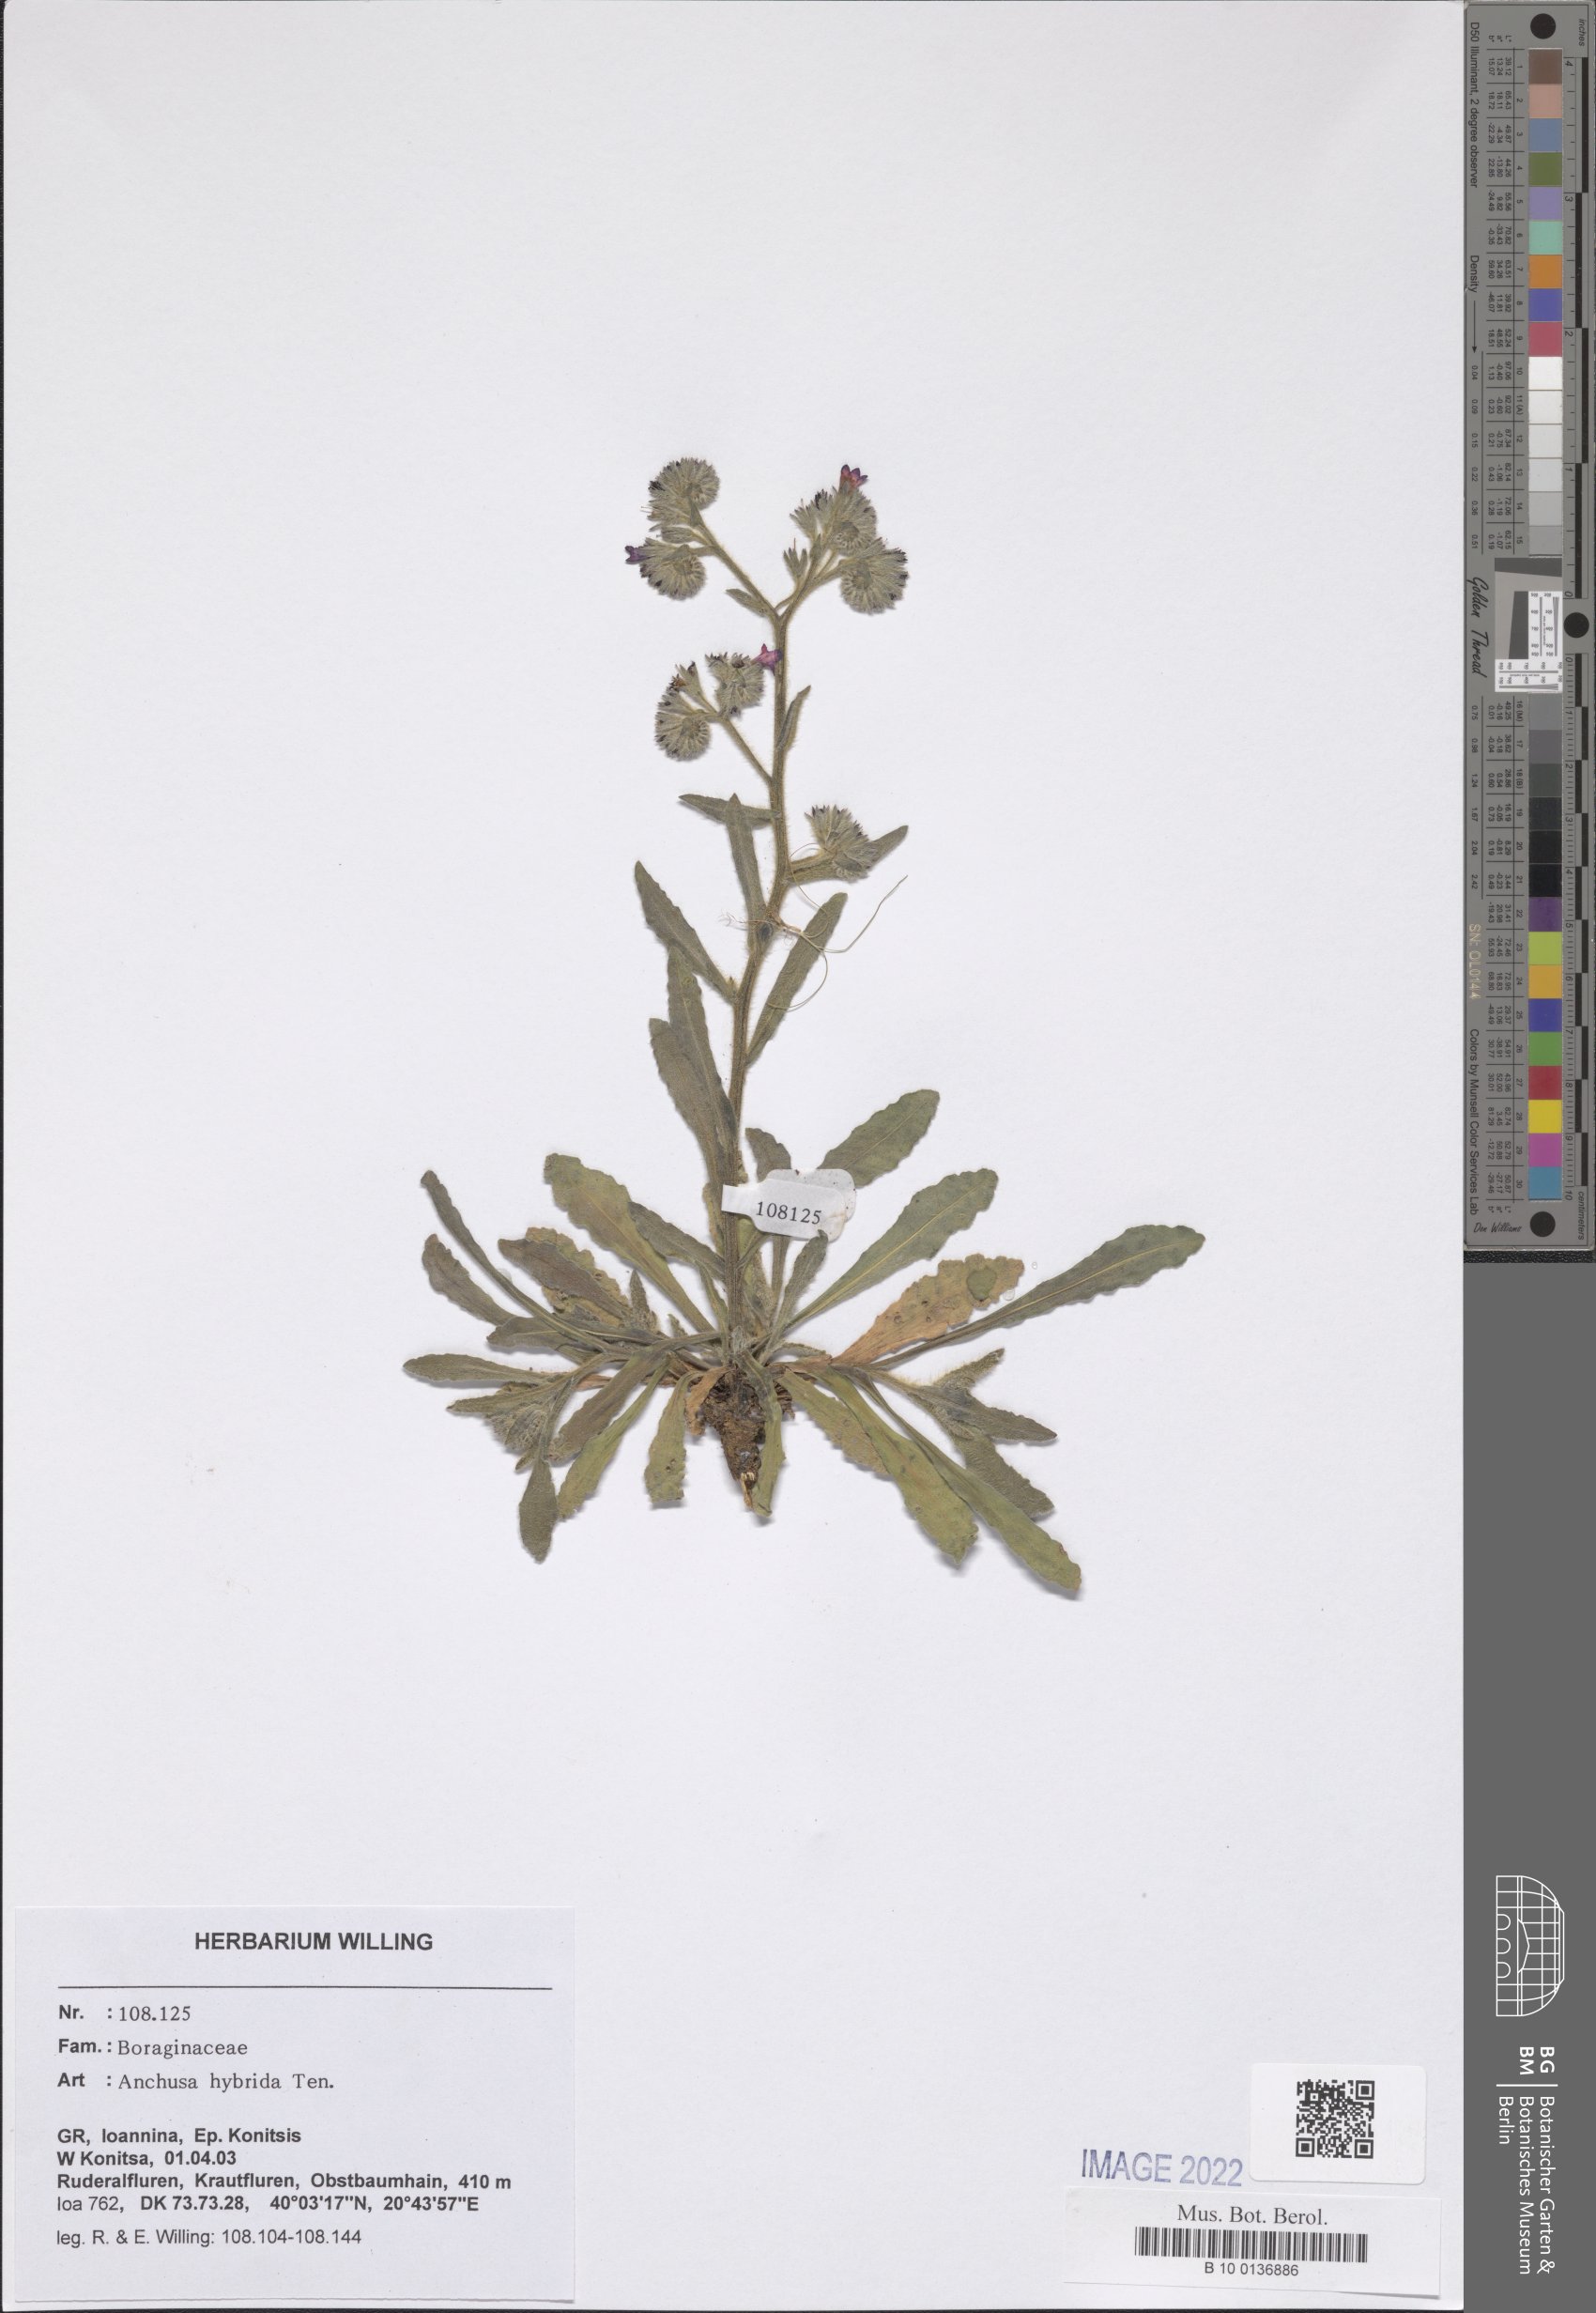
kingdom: Plantae
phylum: Tracheophyta
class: Magnoliopsida
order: Boraginales
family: Boraginaceae
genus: Anchusa
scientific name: Anchusa hybrida
